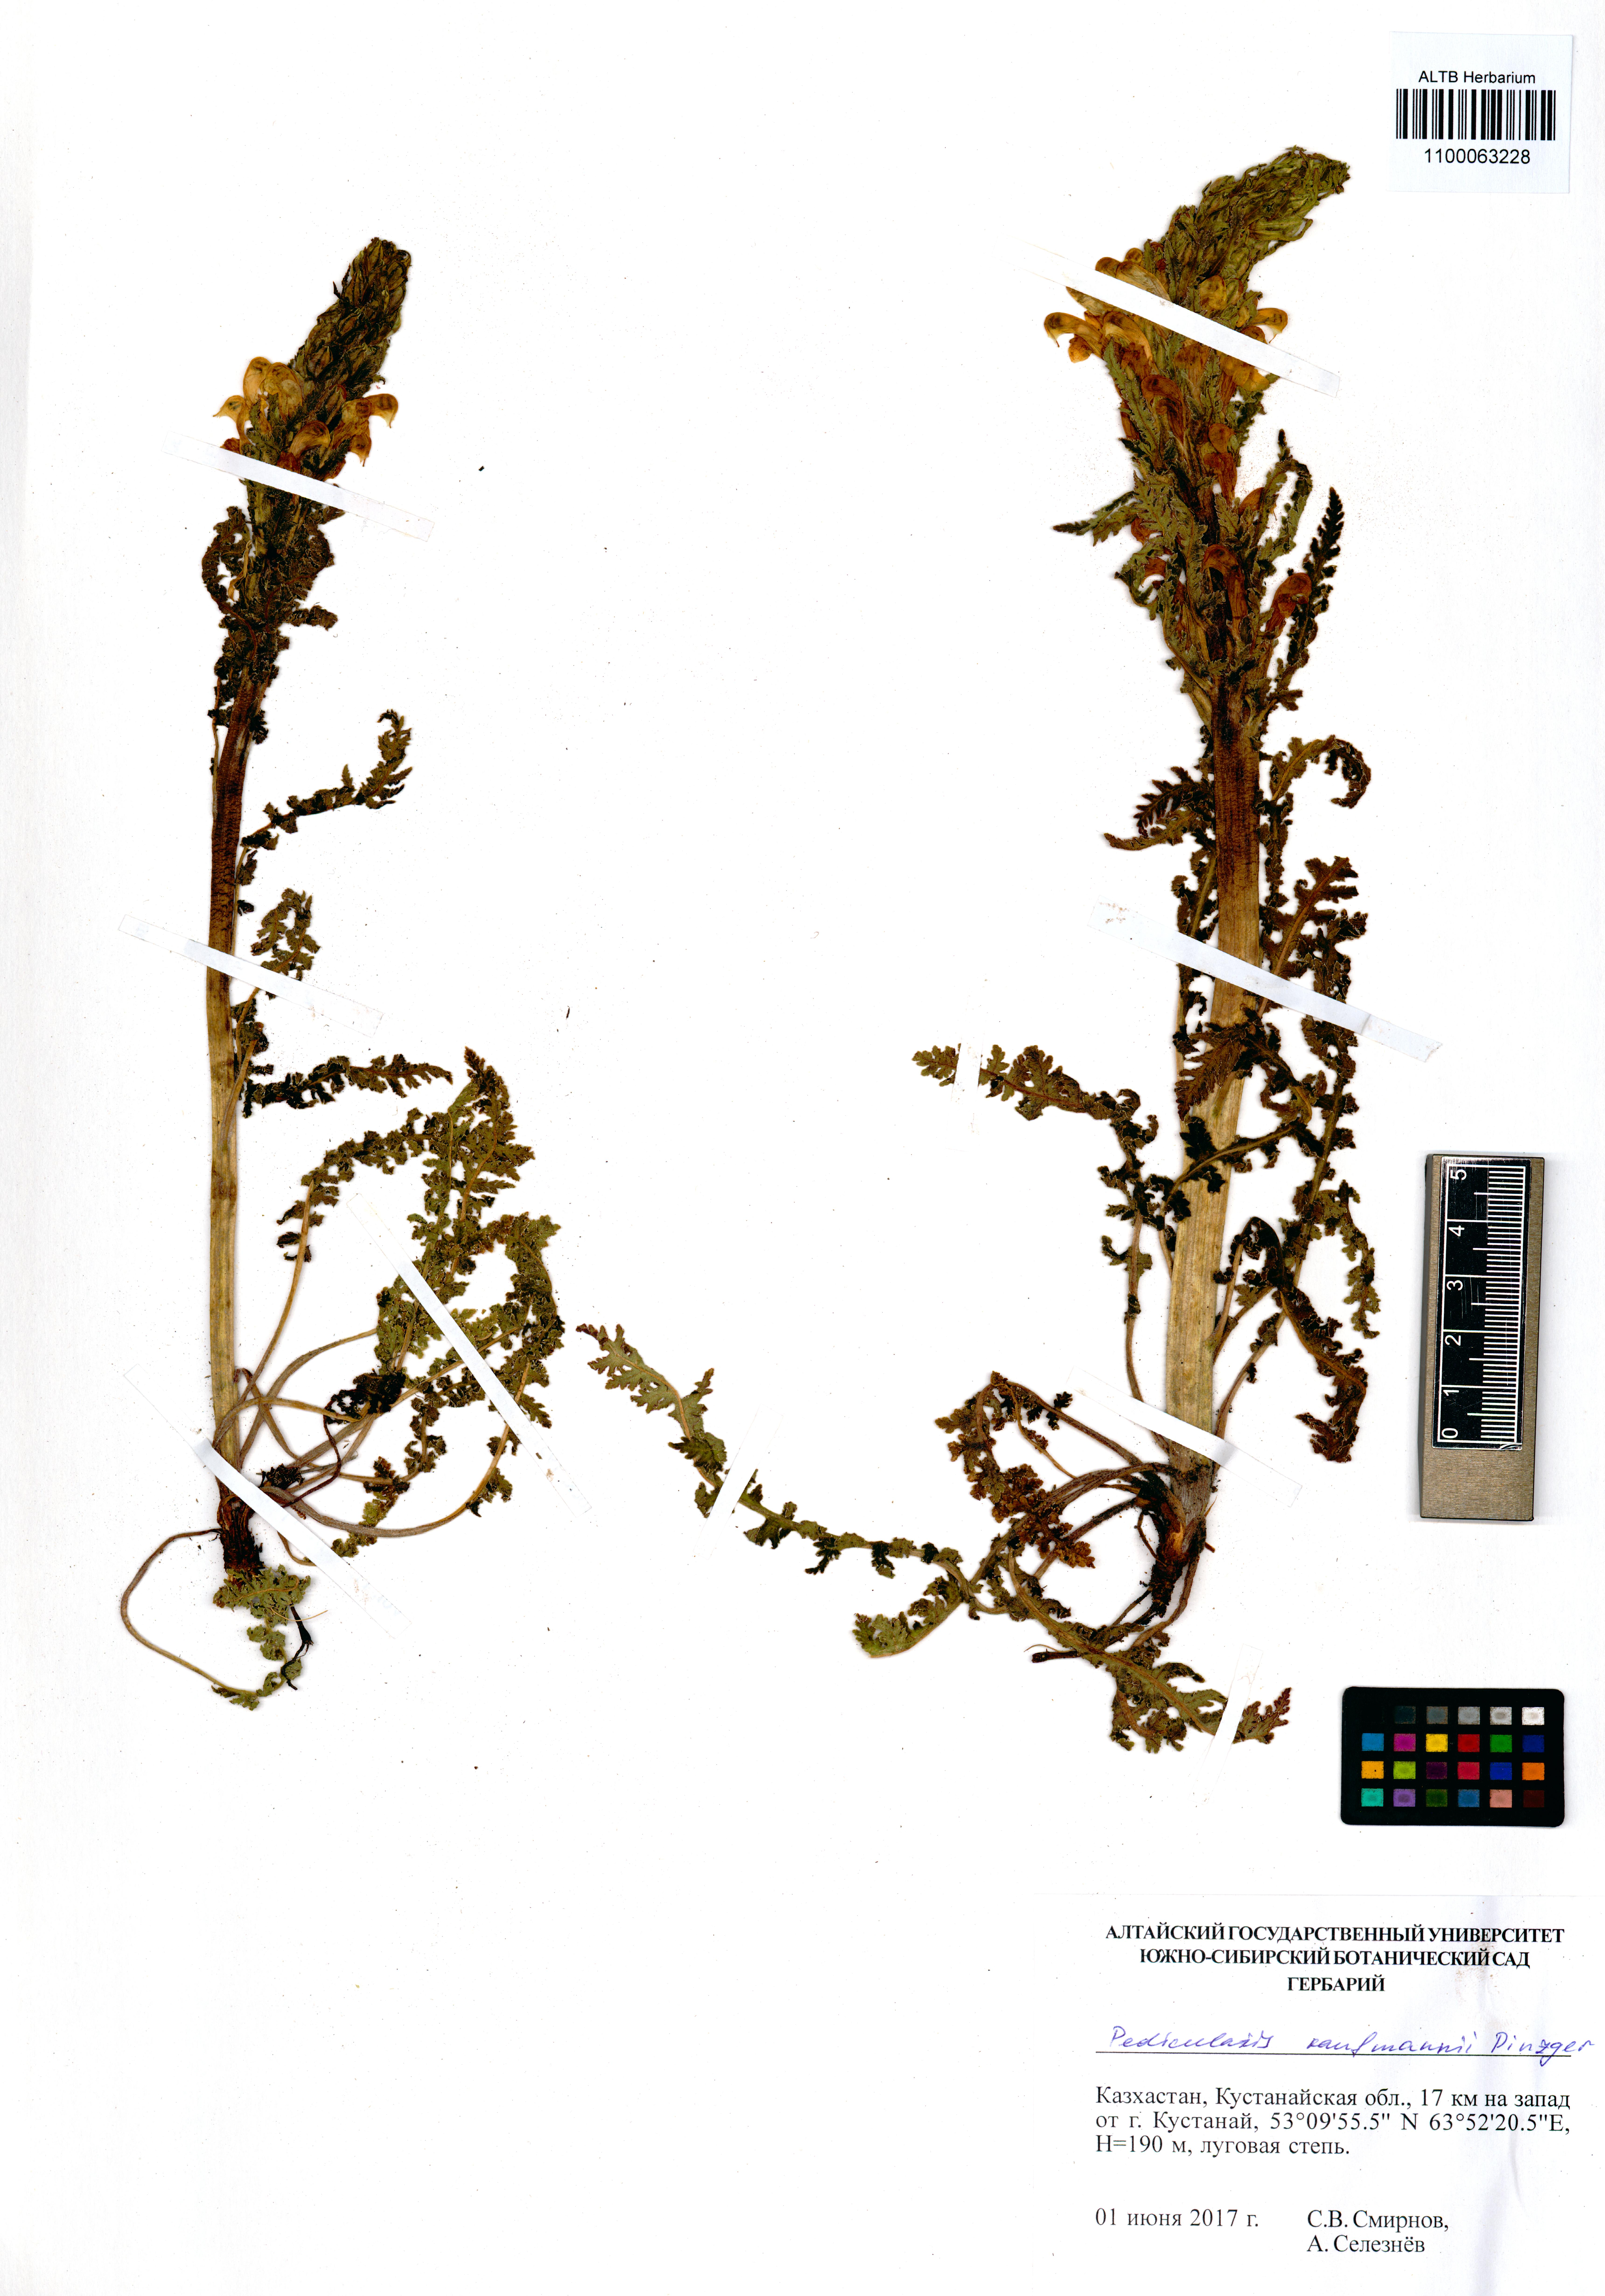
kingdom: Plantae
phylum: Tracheophyta
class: Magnoliopsida
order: Lamiales
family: Orobanchaceae
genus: Pedicularis
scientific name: Pedicularis kaufmannii
